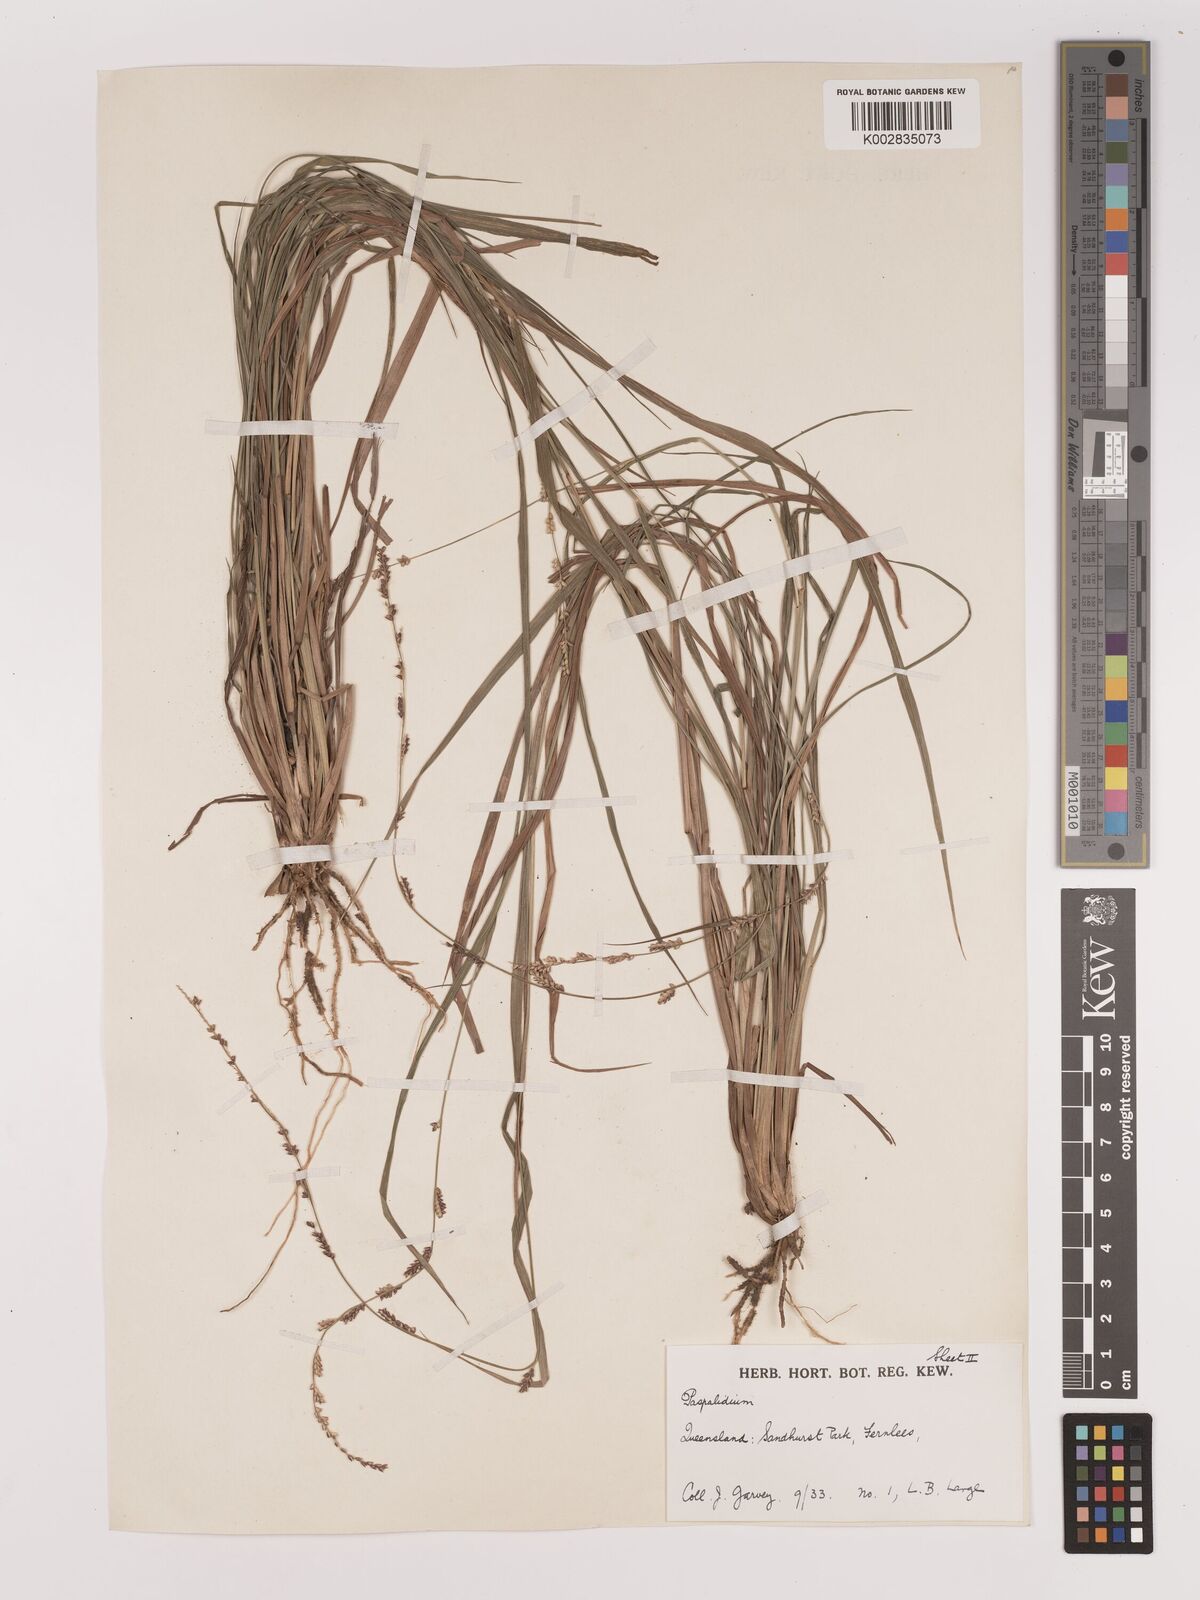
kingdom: Plantae
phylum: Tracheophyta
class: Liliopsida
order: Poales
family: Poaceae
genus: Setaria
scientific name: Setaria
